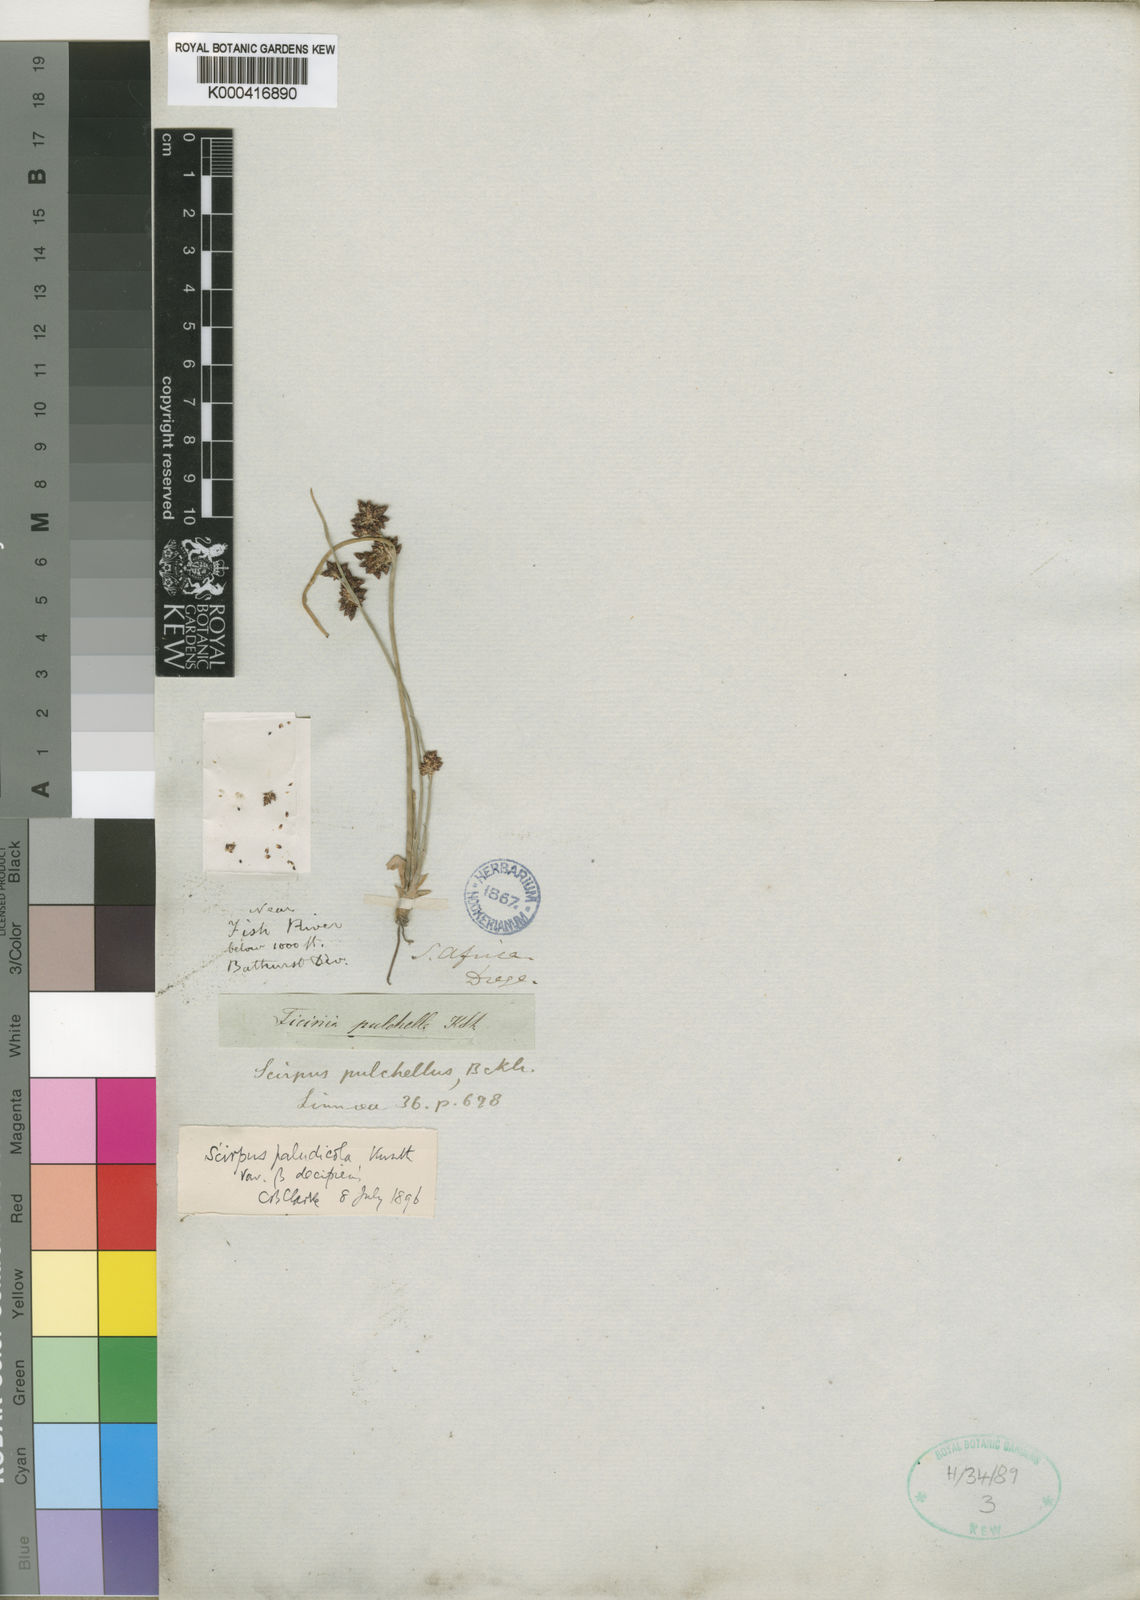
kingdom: Plantae
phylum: Tracheophyta
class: Liliopsida
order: Poales
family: Cyperaceae
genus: Schoenoplectiella
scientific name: Schoenoplectiella pulchella
